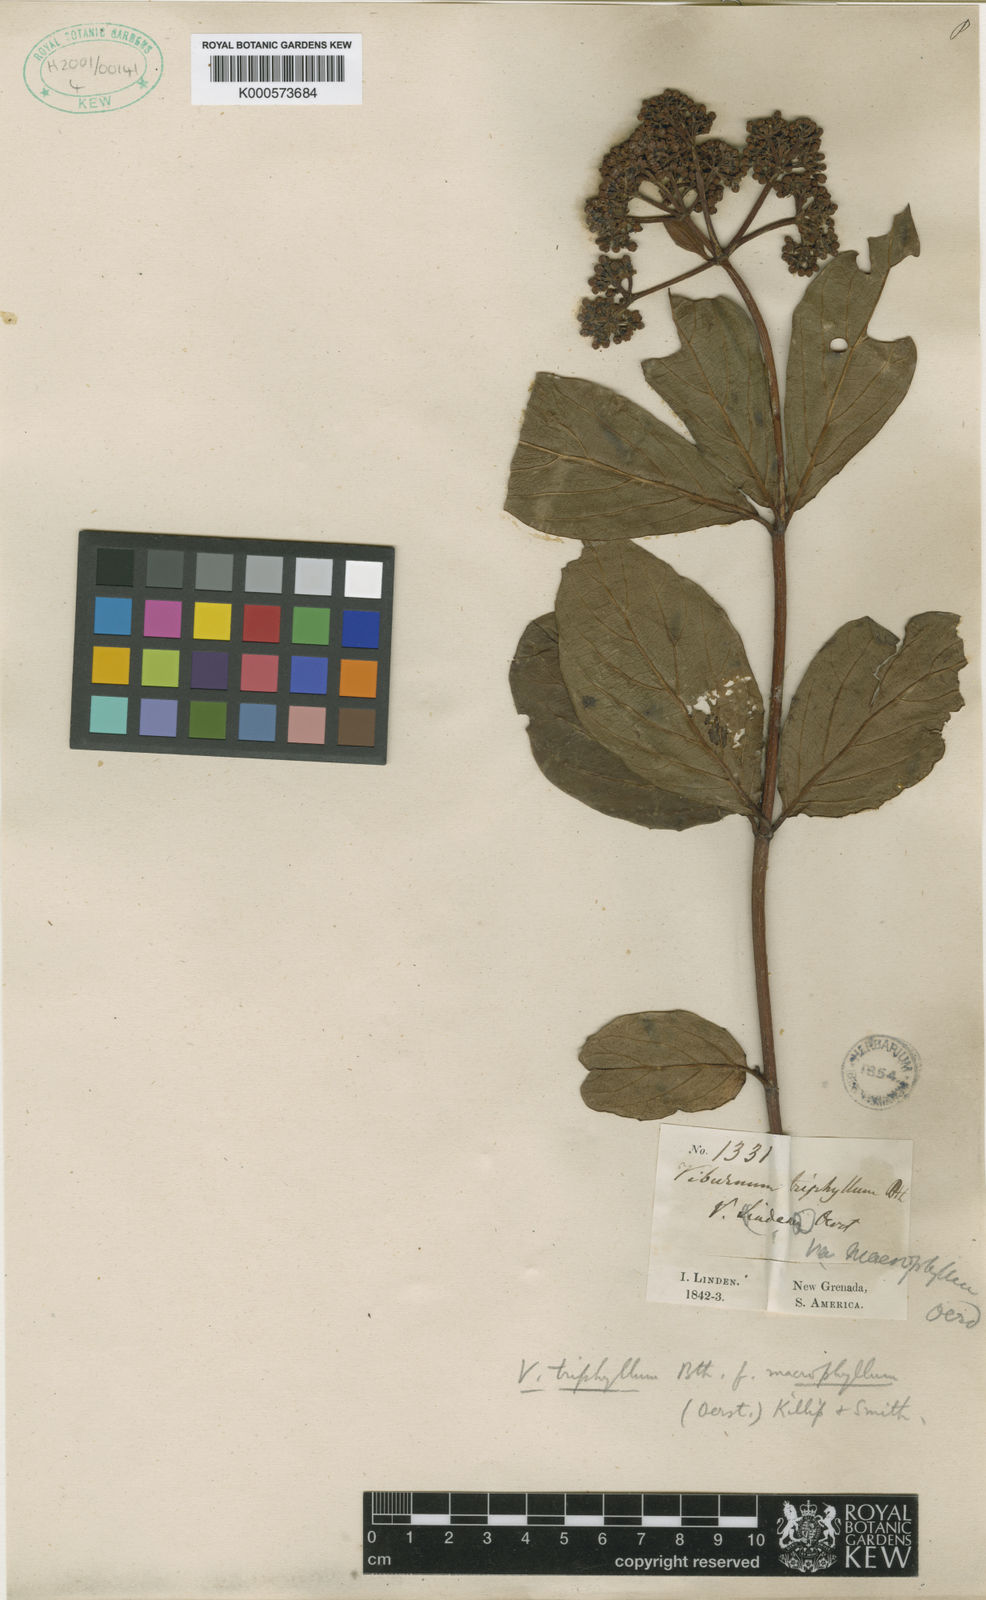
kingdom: Plantae
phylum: Tracheophyta
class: Magnoliopsida
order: Dipsacales
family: Viburnaceae
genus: Viburnum
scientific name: Viburnum triphyllum
